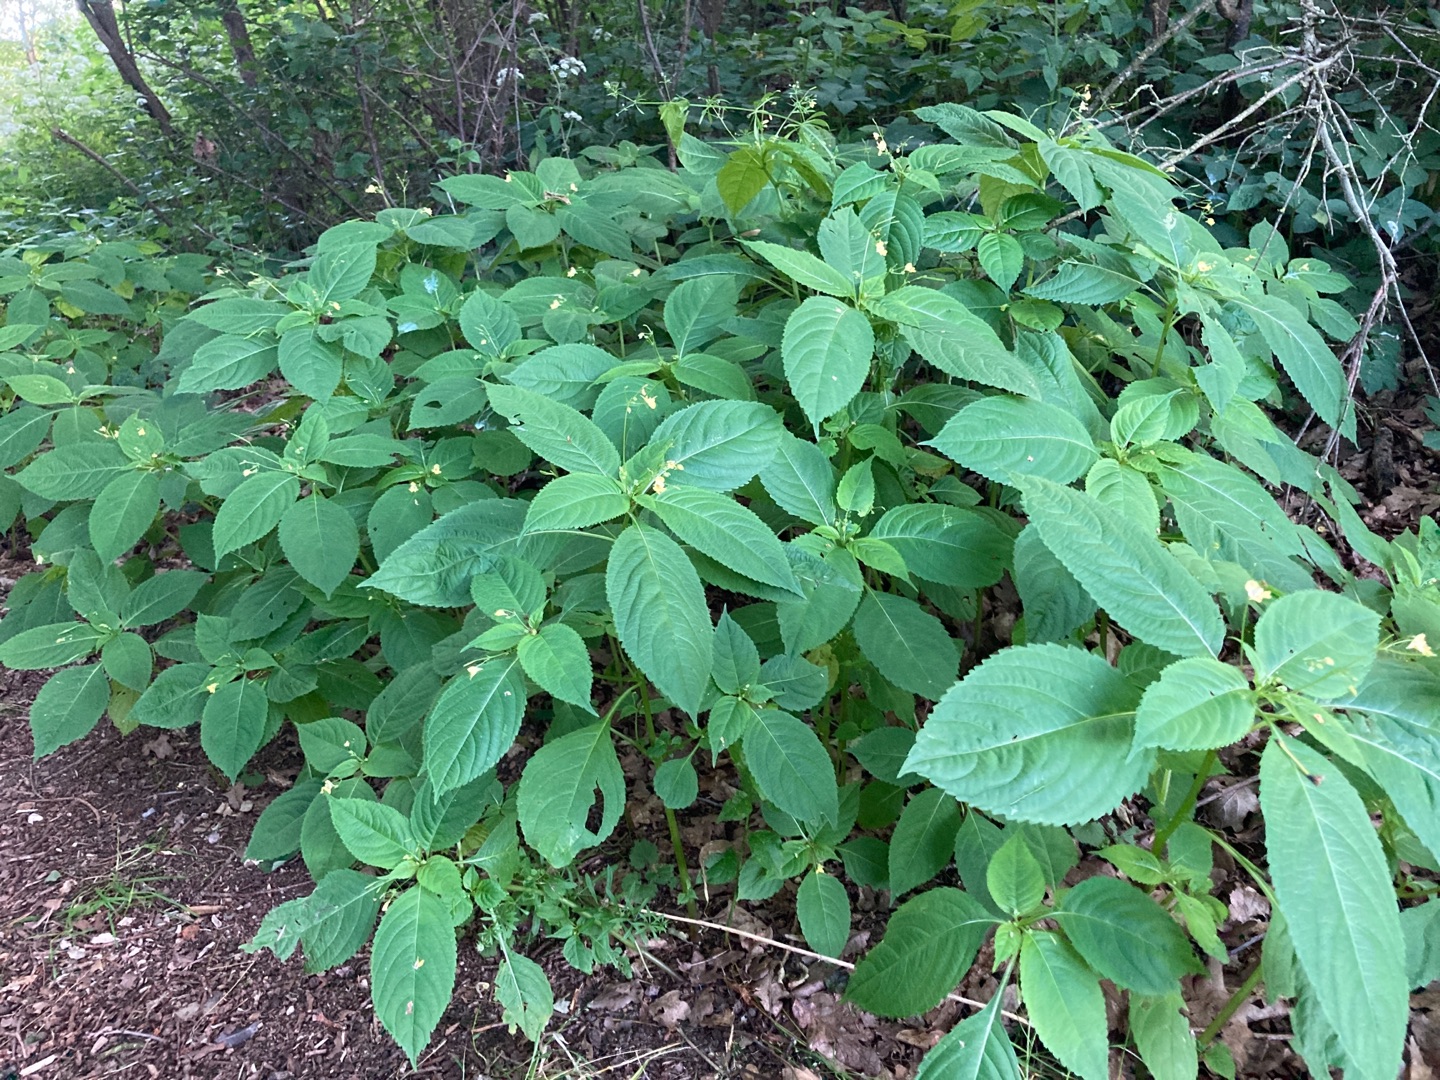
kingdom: Plantae
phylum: Tracheophyta
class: Magnoliopsida
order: Ericales
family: Balsaminaceae
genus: Impatiens
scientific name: Impatiens parviflora
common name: Småblomstret balsamin
